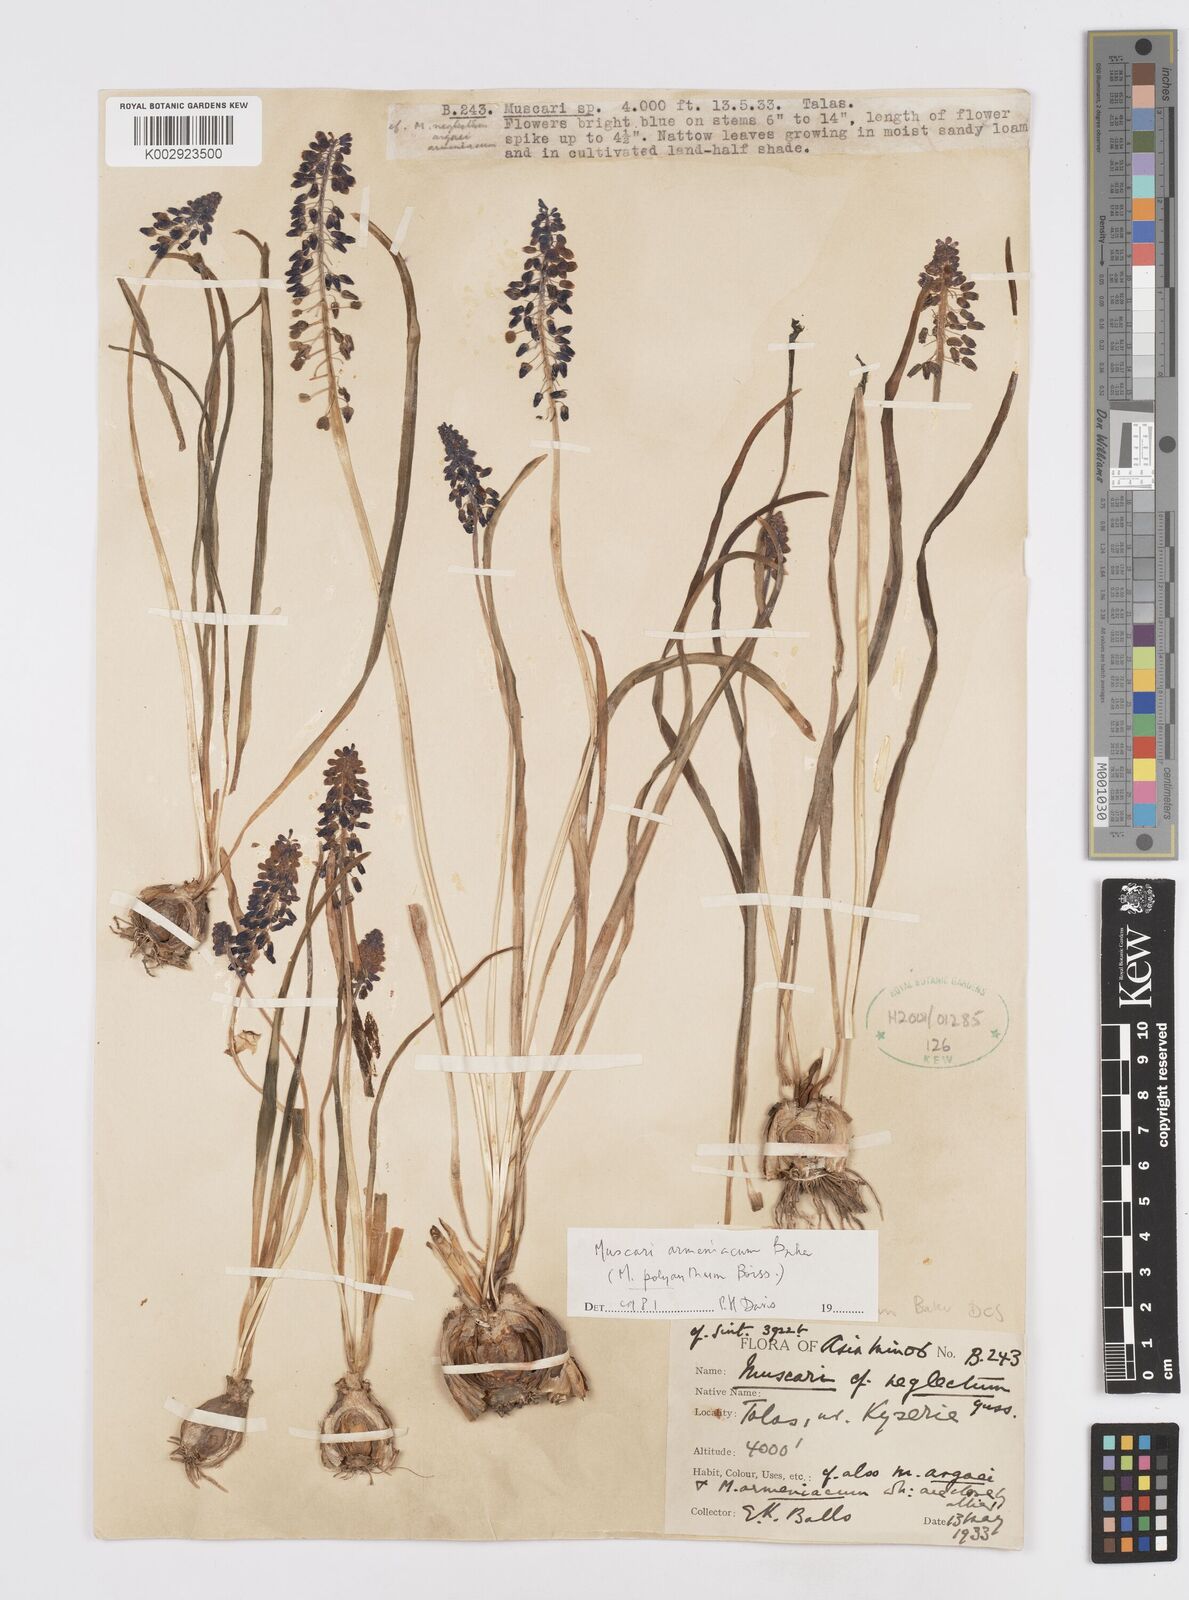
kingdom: Plantae
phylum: Tracheophyta
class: Liliopsida
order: Asparagales
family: Asparagaceae
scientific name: Asparagaceae
